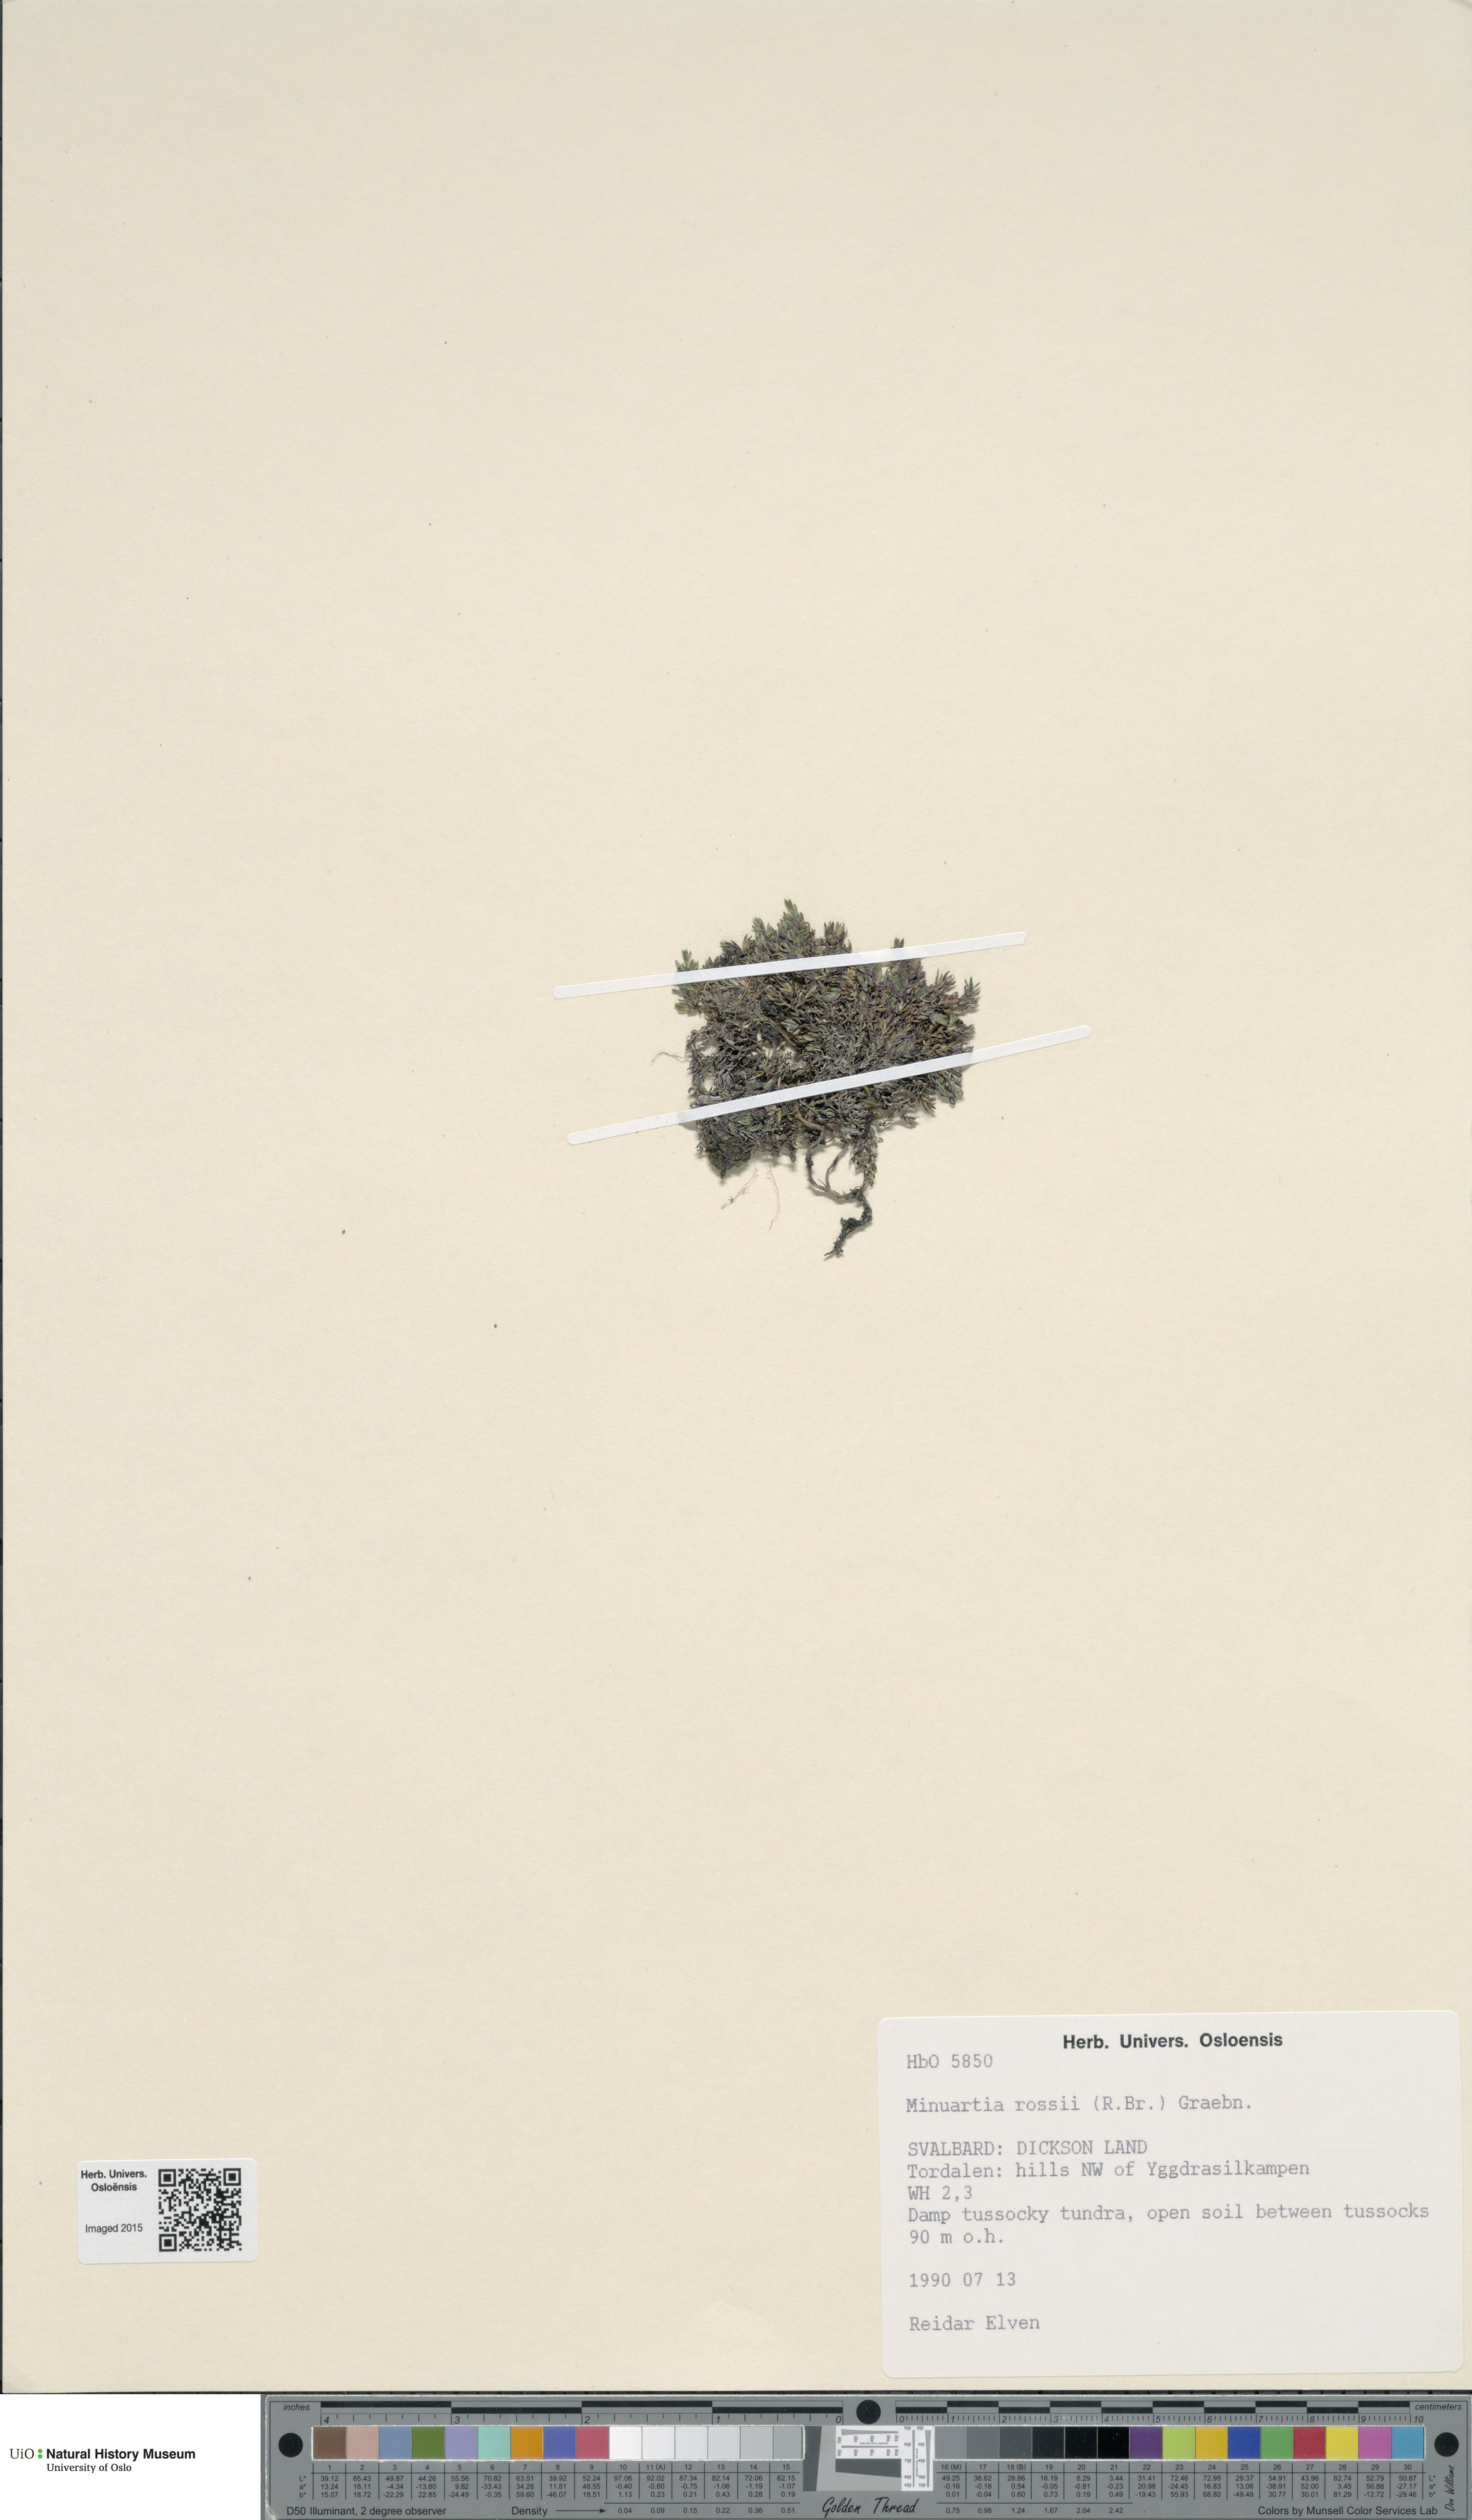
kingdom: Plantae
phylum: Tracheophyta
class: Magnoliopsida
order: Caryophyllales
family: Caryophyllaceae
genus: Sabulina
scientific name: Sabulina rosei
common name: Ross' sandwort
